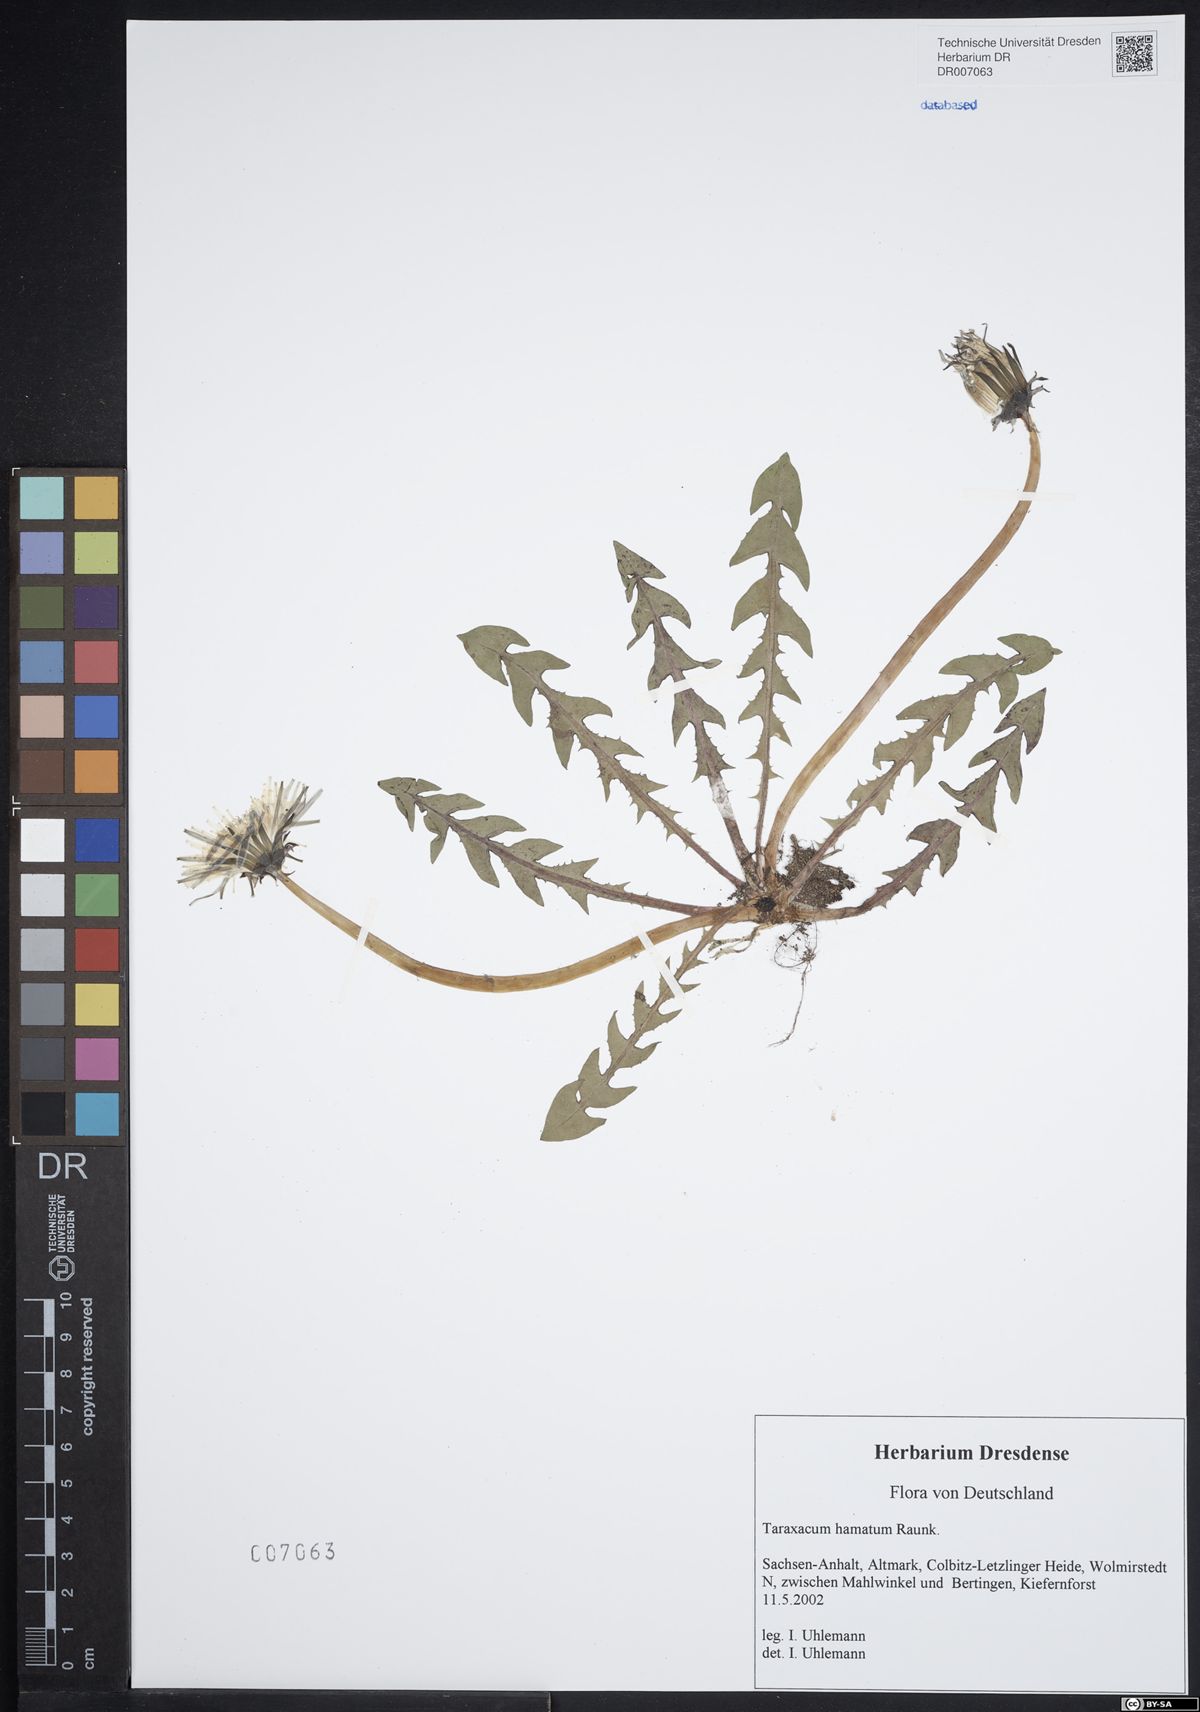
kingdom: Plantae
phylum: Tracheophyta
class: Magnoliopsida
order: Asterales
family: Asteraceae
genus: Taraxacum
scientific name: Taraxacum hamatum
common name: Hook-lobed dandelion
